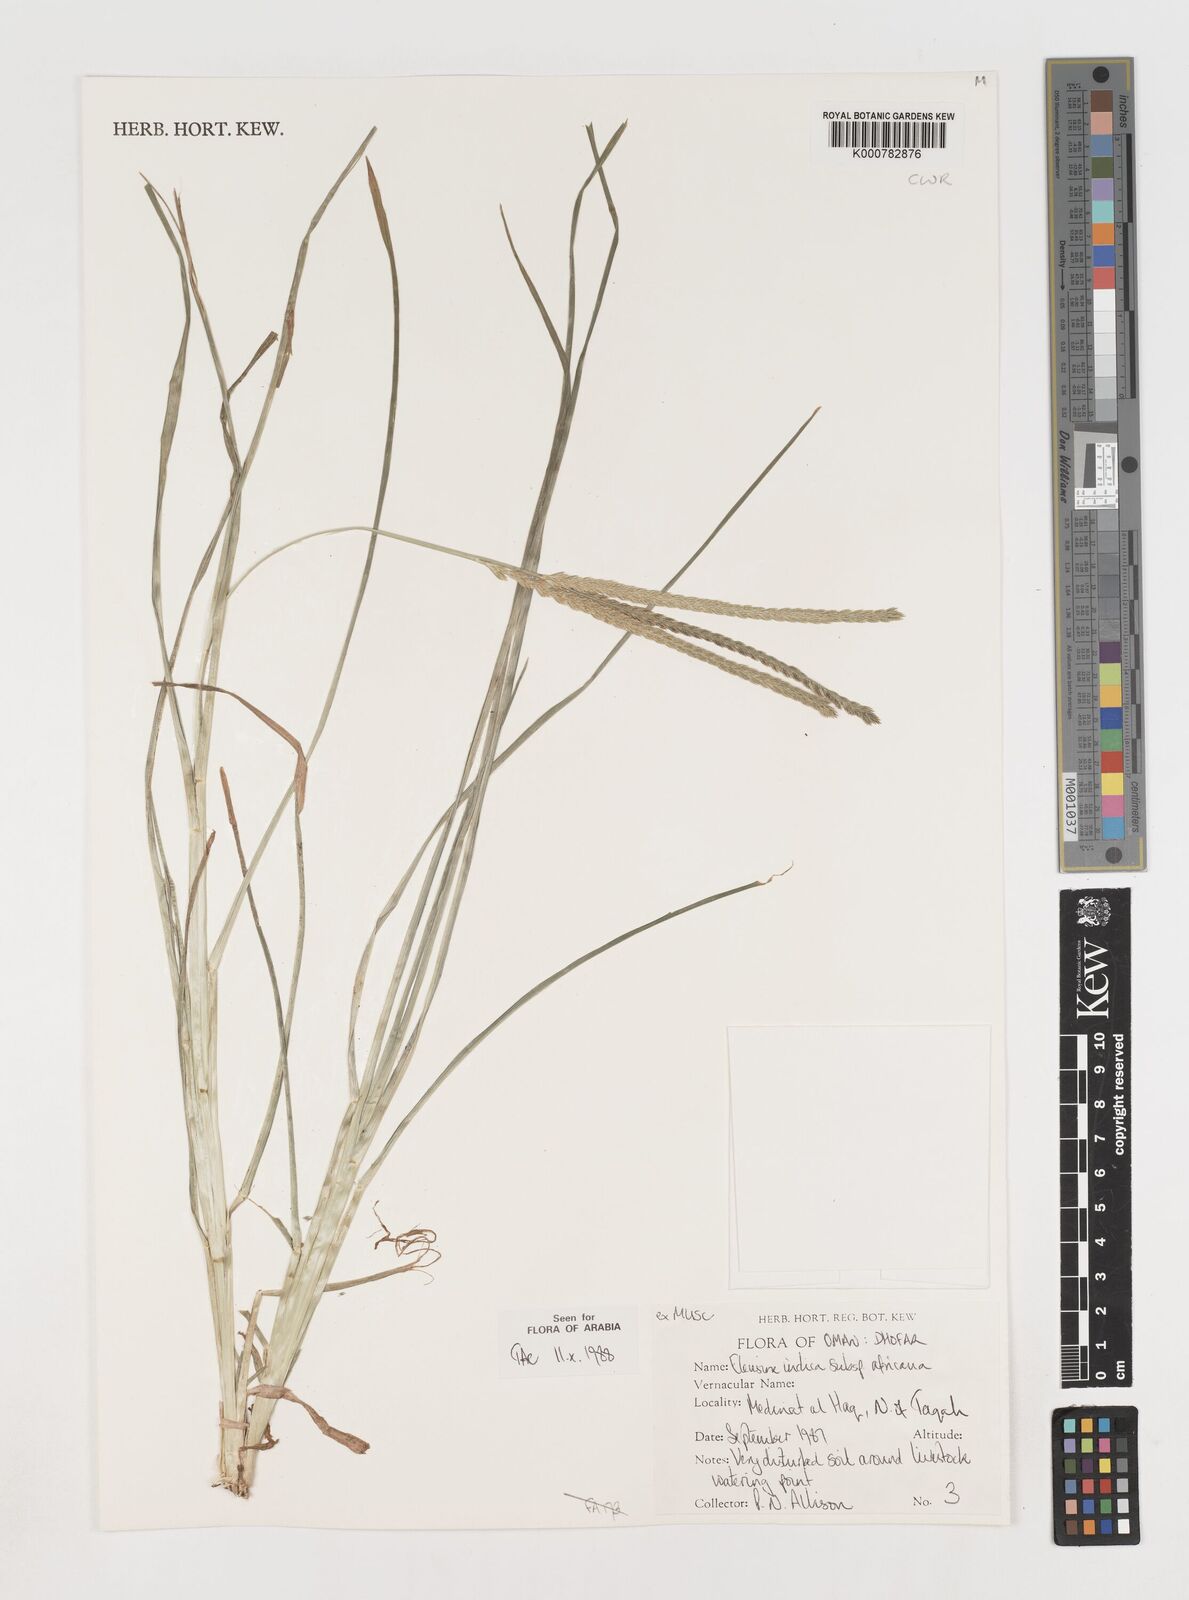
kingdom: Plantae
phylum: Tracheophyta
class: Liliopsida
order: Poales
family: Poaceae
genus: Eleusine
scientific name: Eleusine africana
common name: Wild african finger millet
